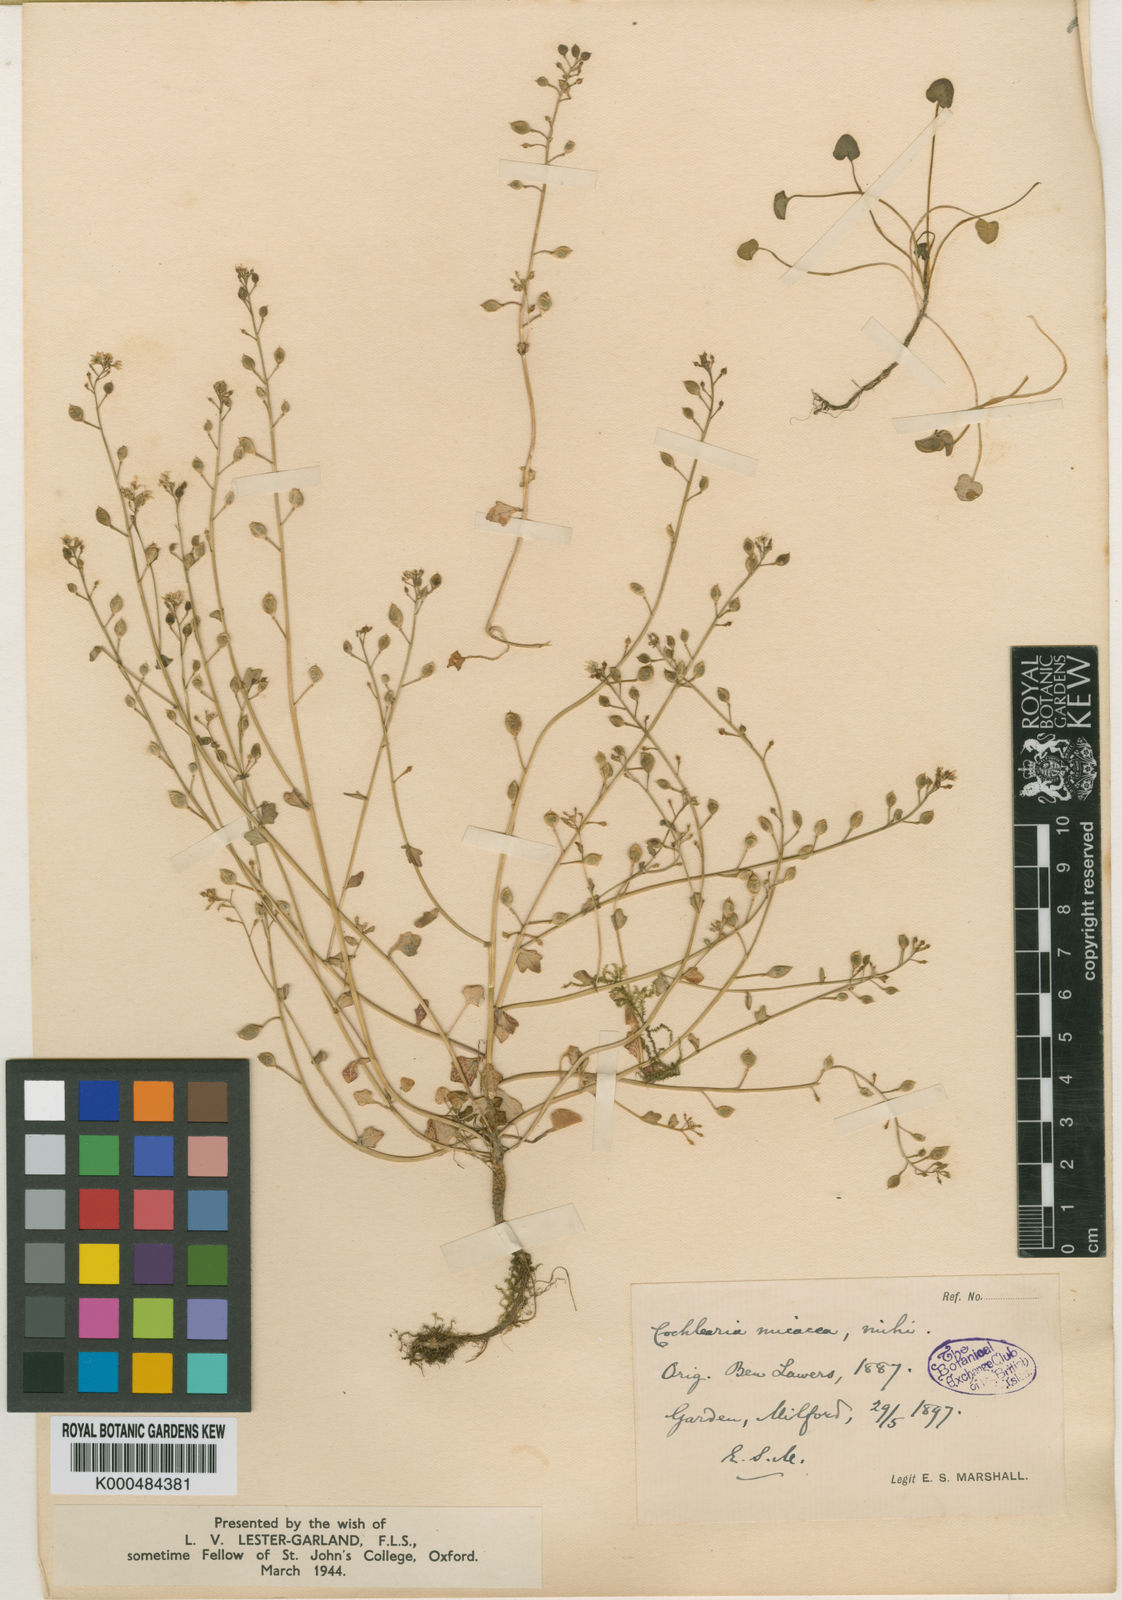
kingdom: Plantae
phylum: Tracheophyta
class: Magnoliopsida
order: Brassicales
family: Brassicaceae
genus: Cochlearia
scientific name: Cochlearia micacea
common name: Mountain scurvygrass
